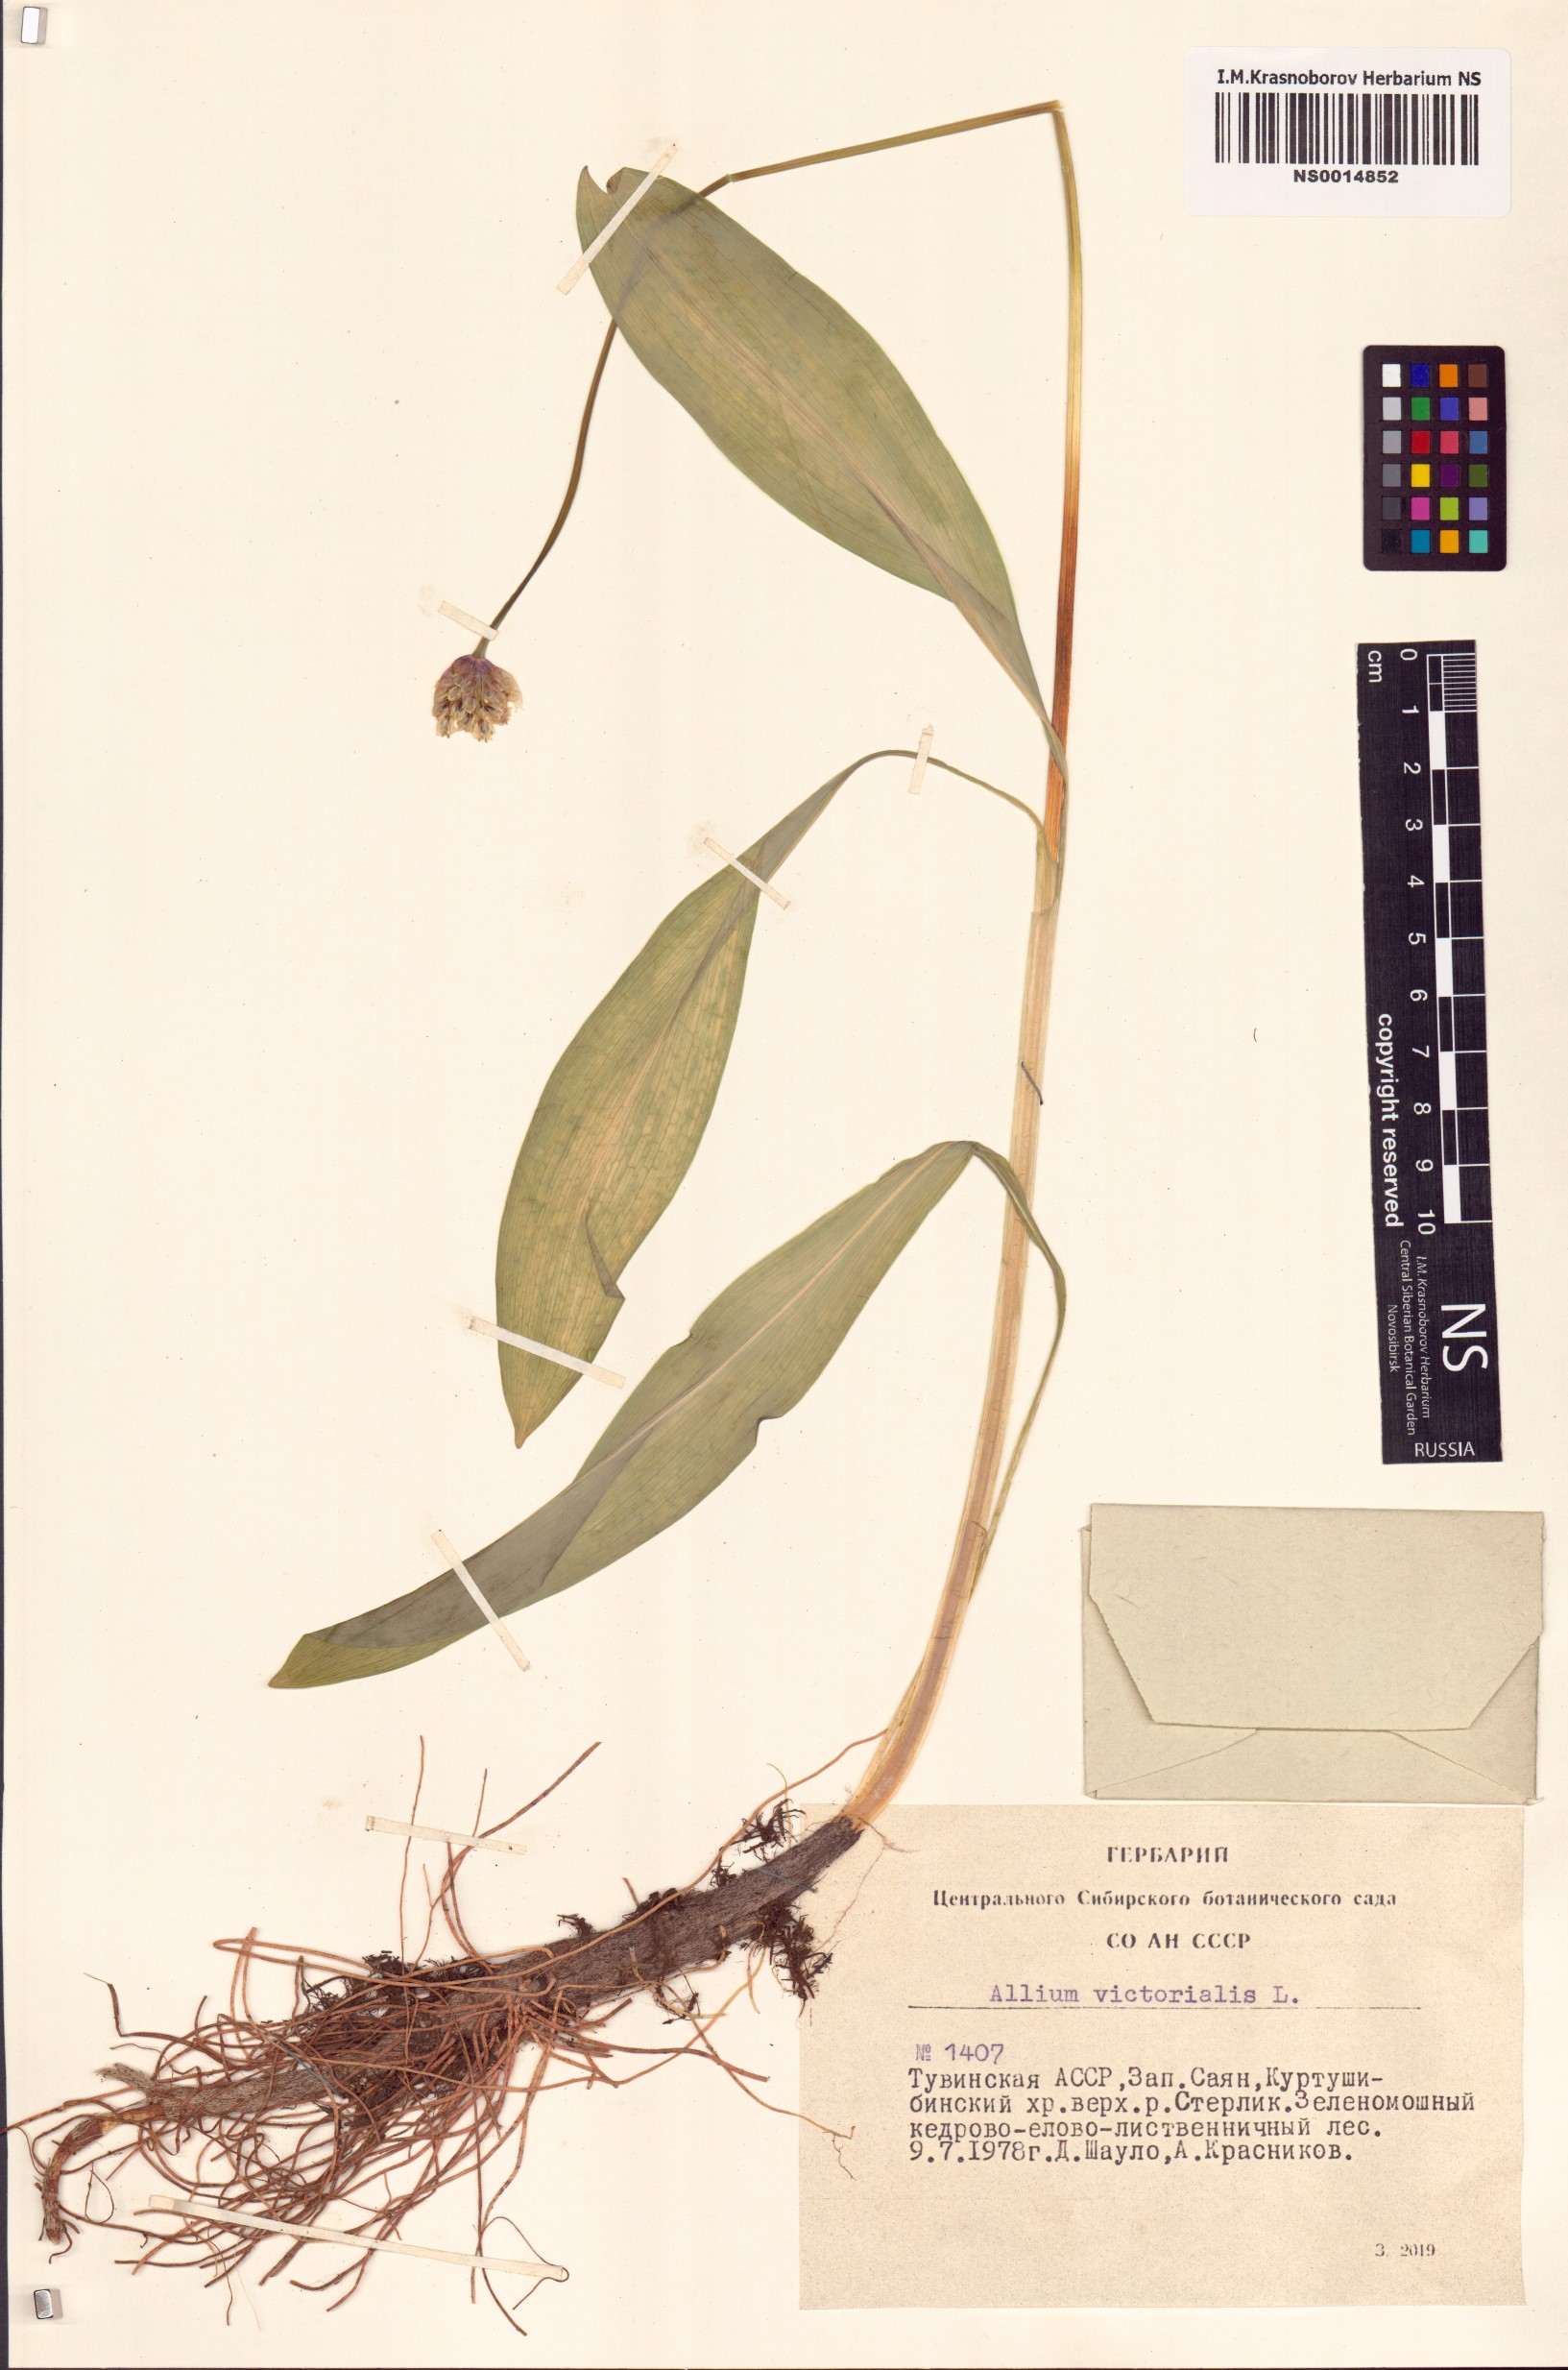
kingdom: Plantae
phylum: Tracheophyta
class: Liliopsida
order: Asparagales
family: Amaryllidaceae
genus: Allium
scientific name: Allium victorialis
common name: Alpine leek
